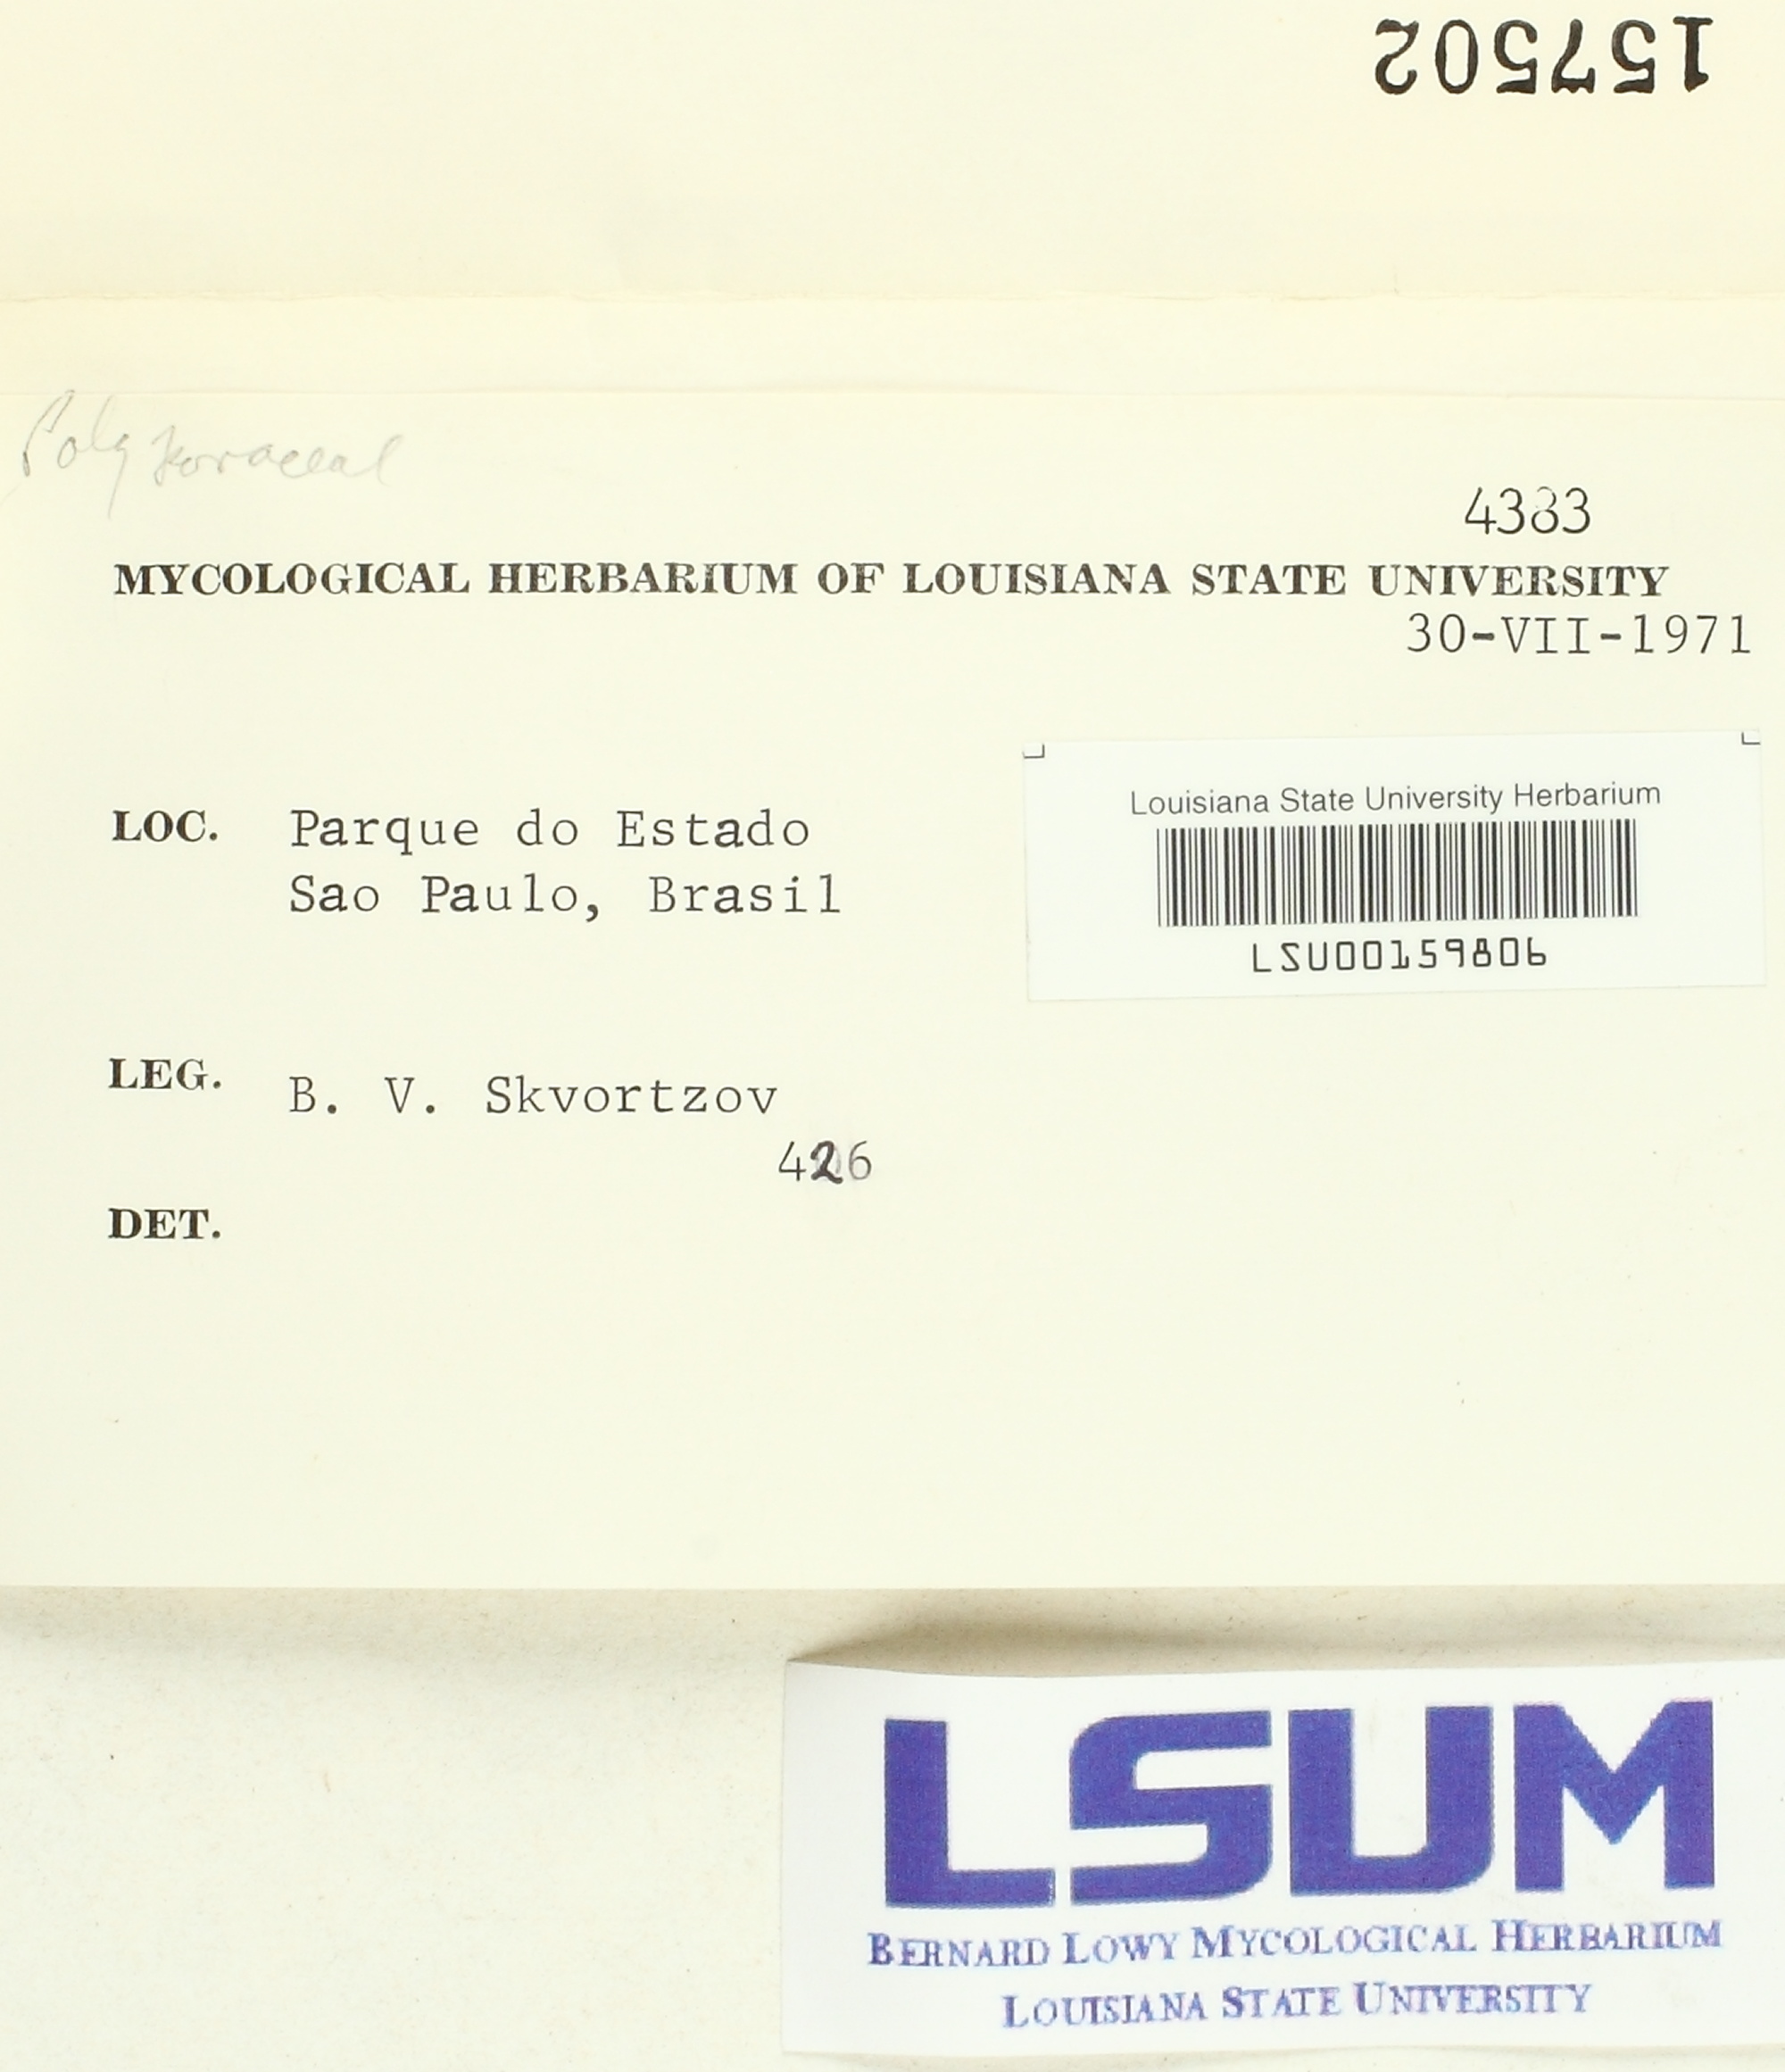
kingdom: Fungi
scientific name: Fungi
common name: Fungi
